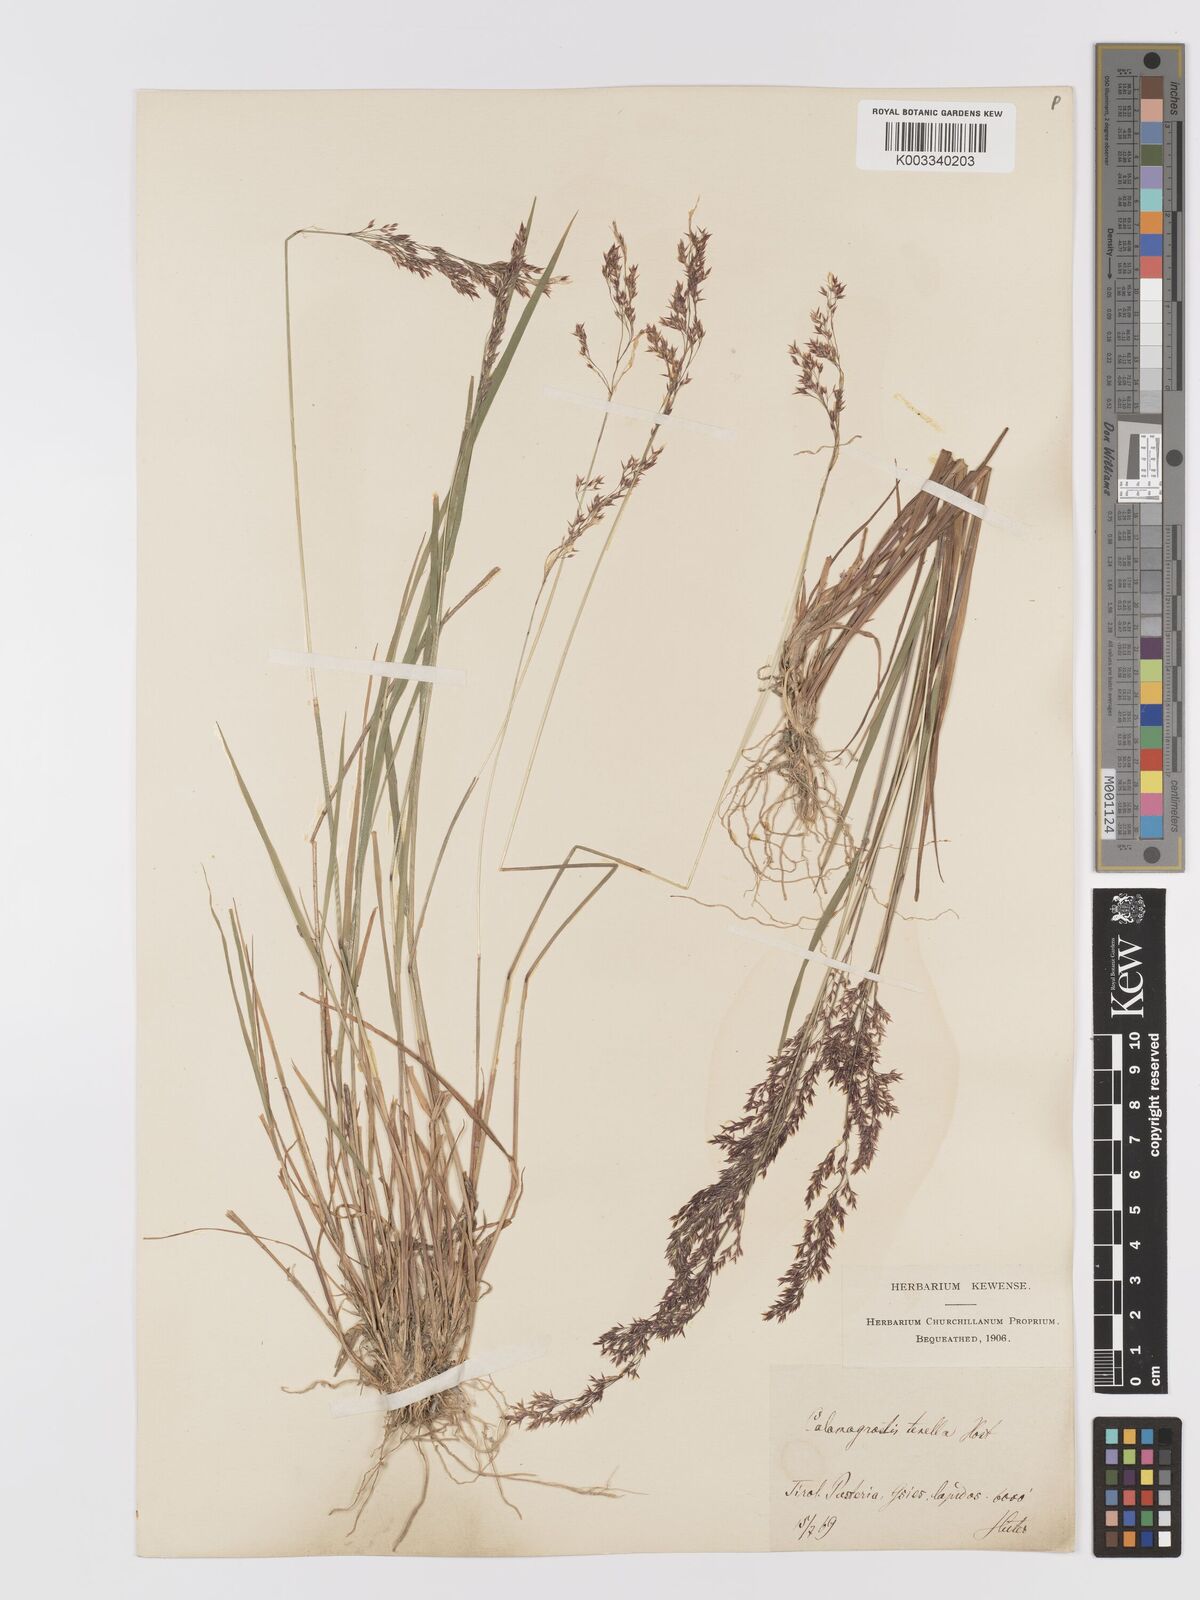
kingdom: Plantae
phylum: Tracheophyta
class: Liliopsida
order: Poales
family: Poaceae
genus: Agrostis
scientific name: Agrostis schraderiana
